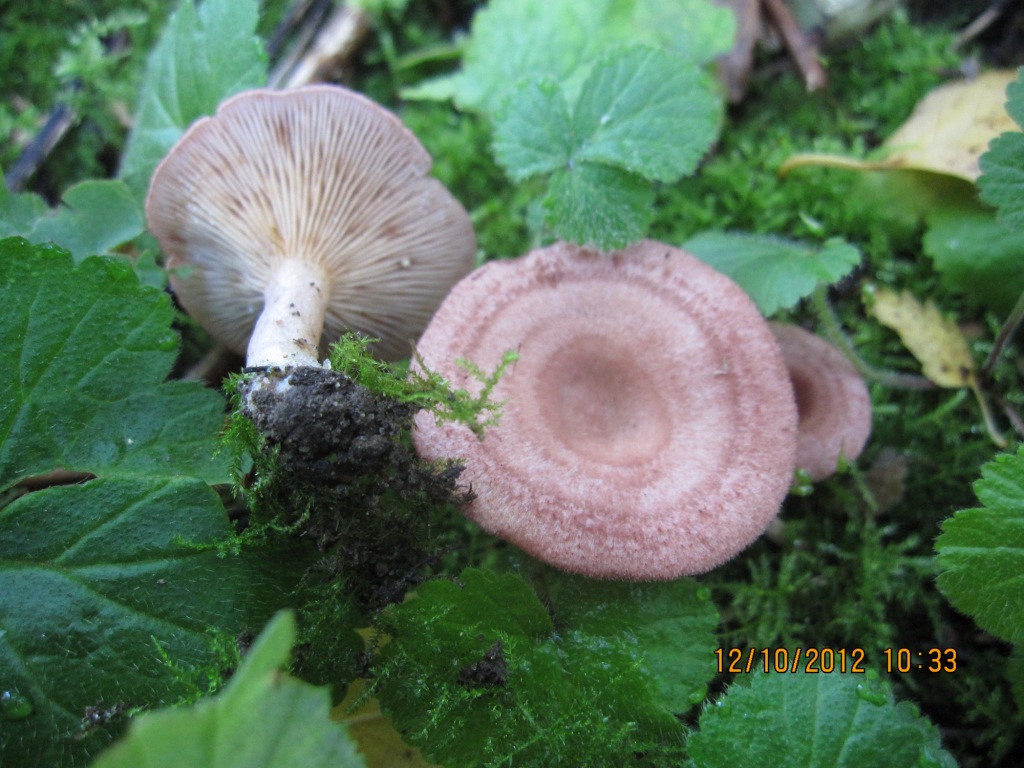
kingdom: Fungi
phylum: Basidiomycota
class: Agaricomycetes
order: Russulales
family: Russulaceae
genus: Lactarius
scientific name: Lactarius spinosulus
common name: småskællet mælkehat
